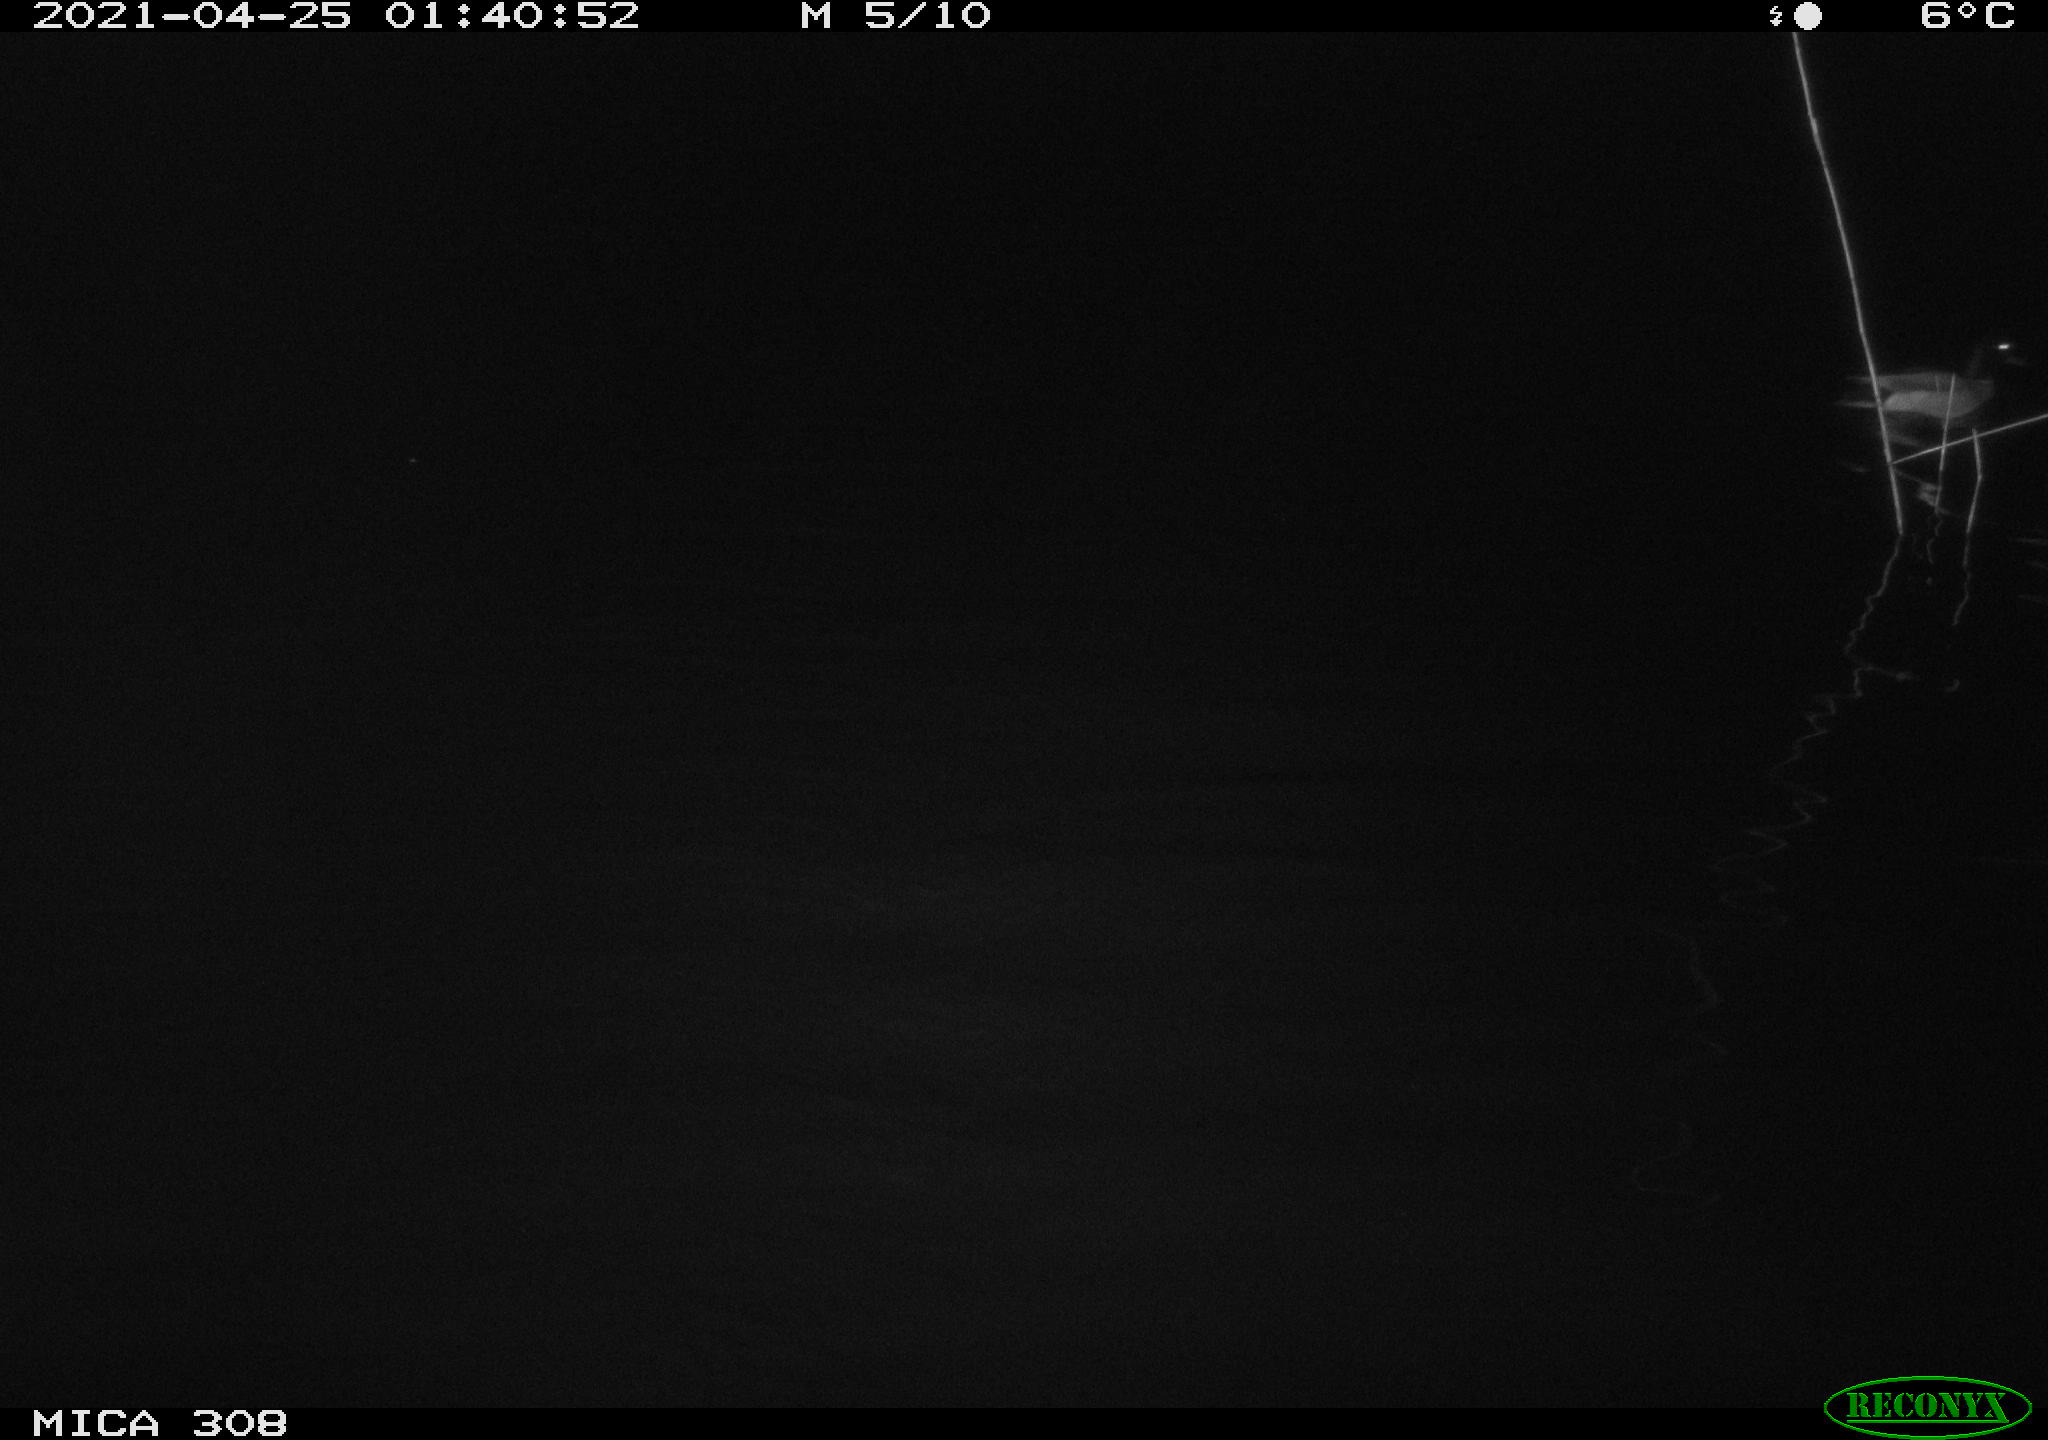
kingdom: Animalia
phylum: Chordata
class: Aves
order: Anseriformes
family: Anatidae
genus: Anas
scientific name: Anas platyrhynchos
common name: Mallard
